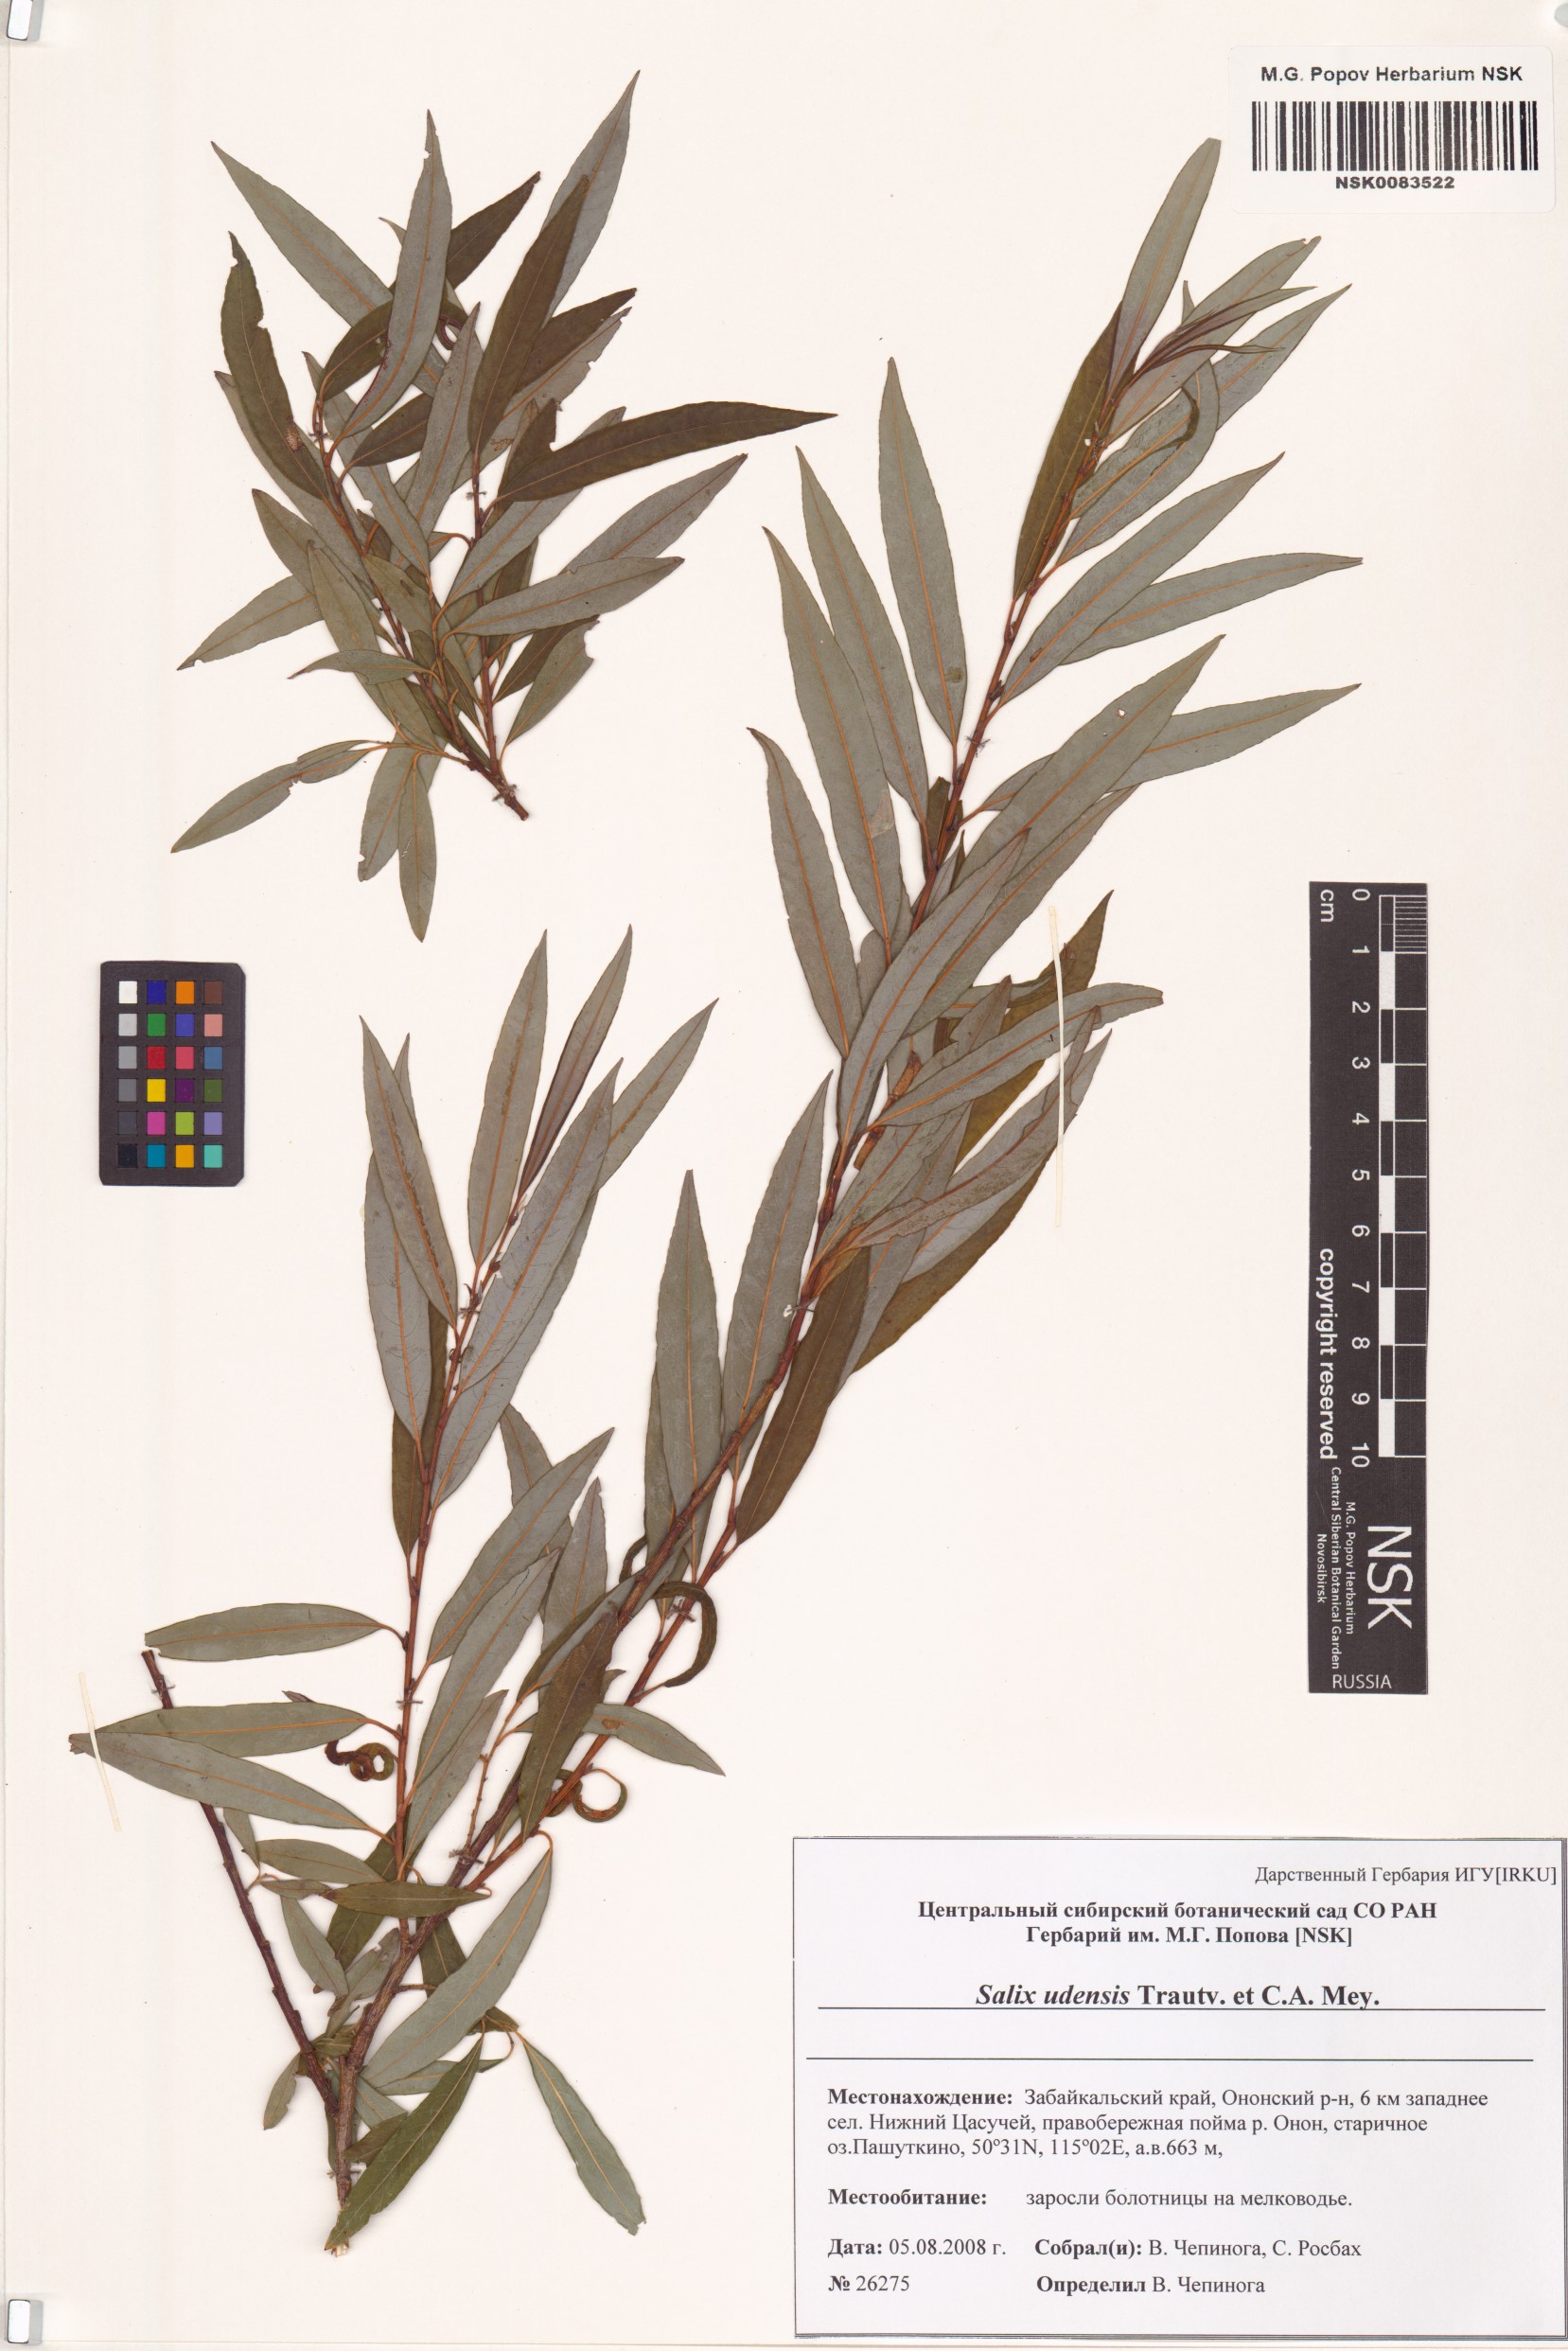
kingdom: Plantae
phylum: Tracheophyta
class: Magnoliopsida
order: Malpighiales
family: Salicaceae
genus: Salix
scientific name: Salix udensis
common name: Sachalin willow
